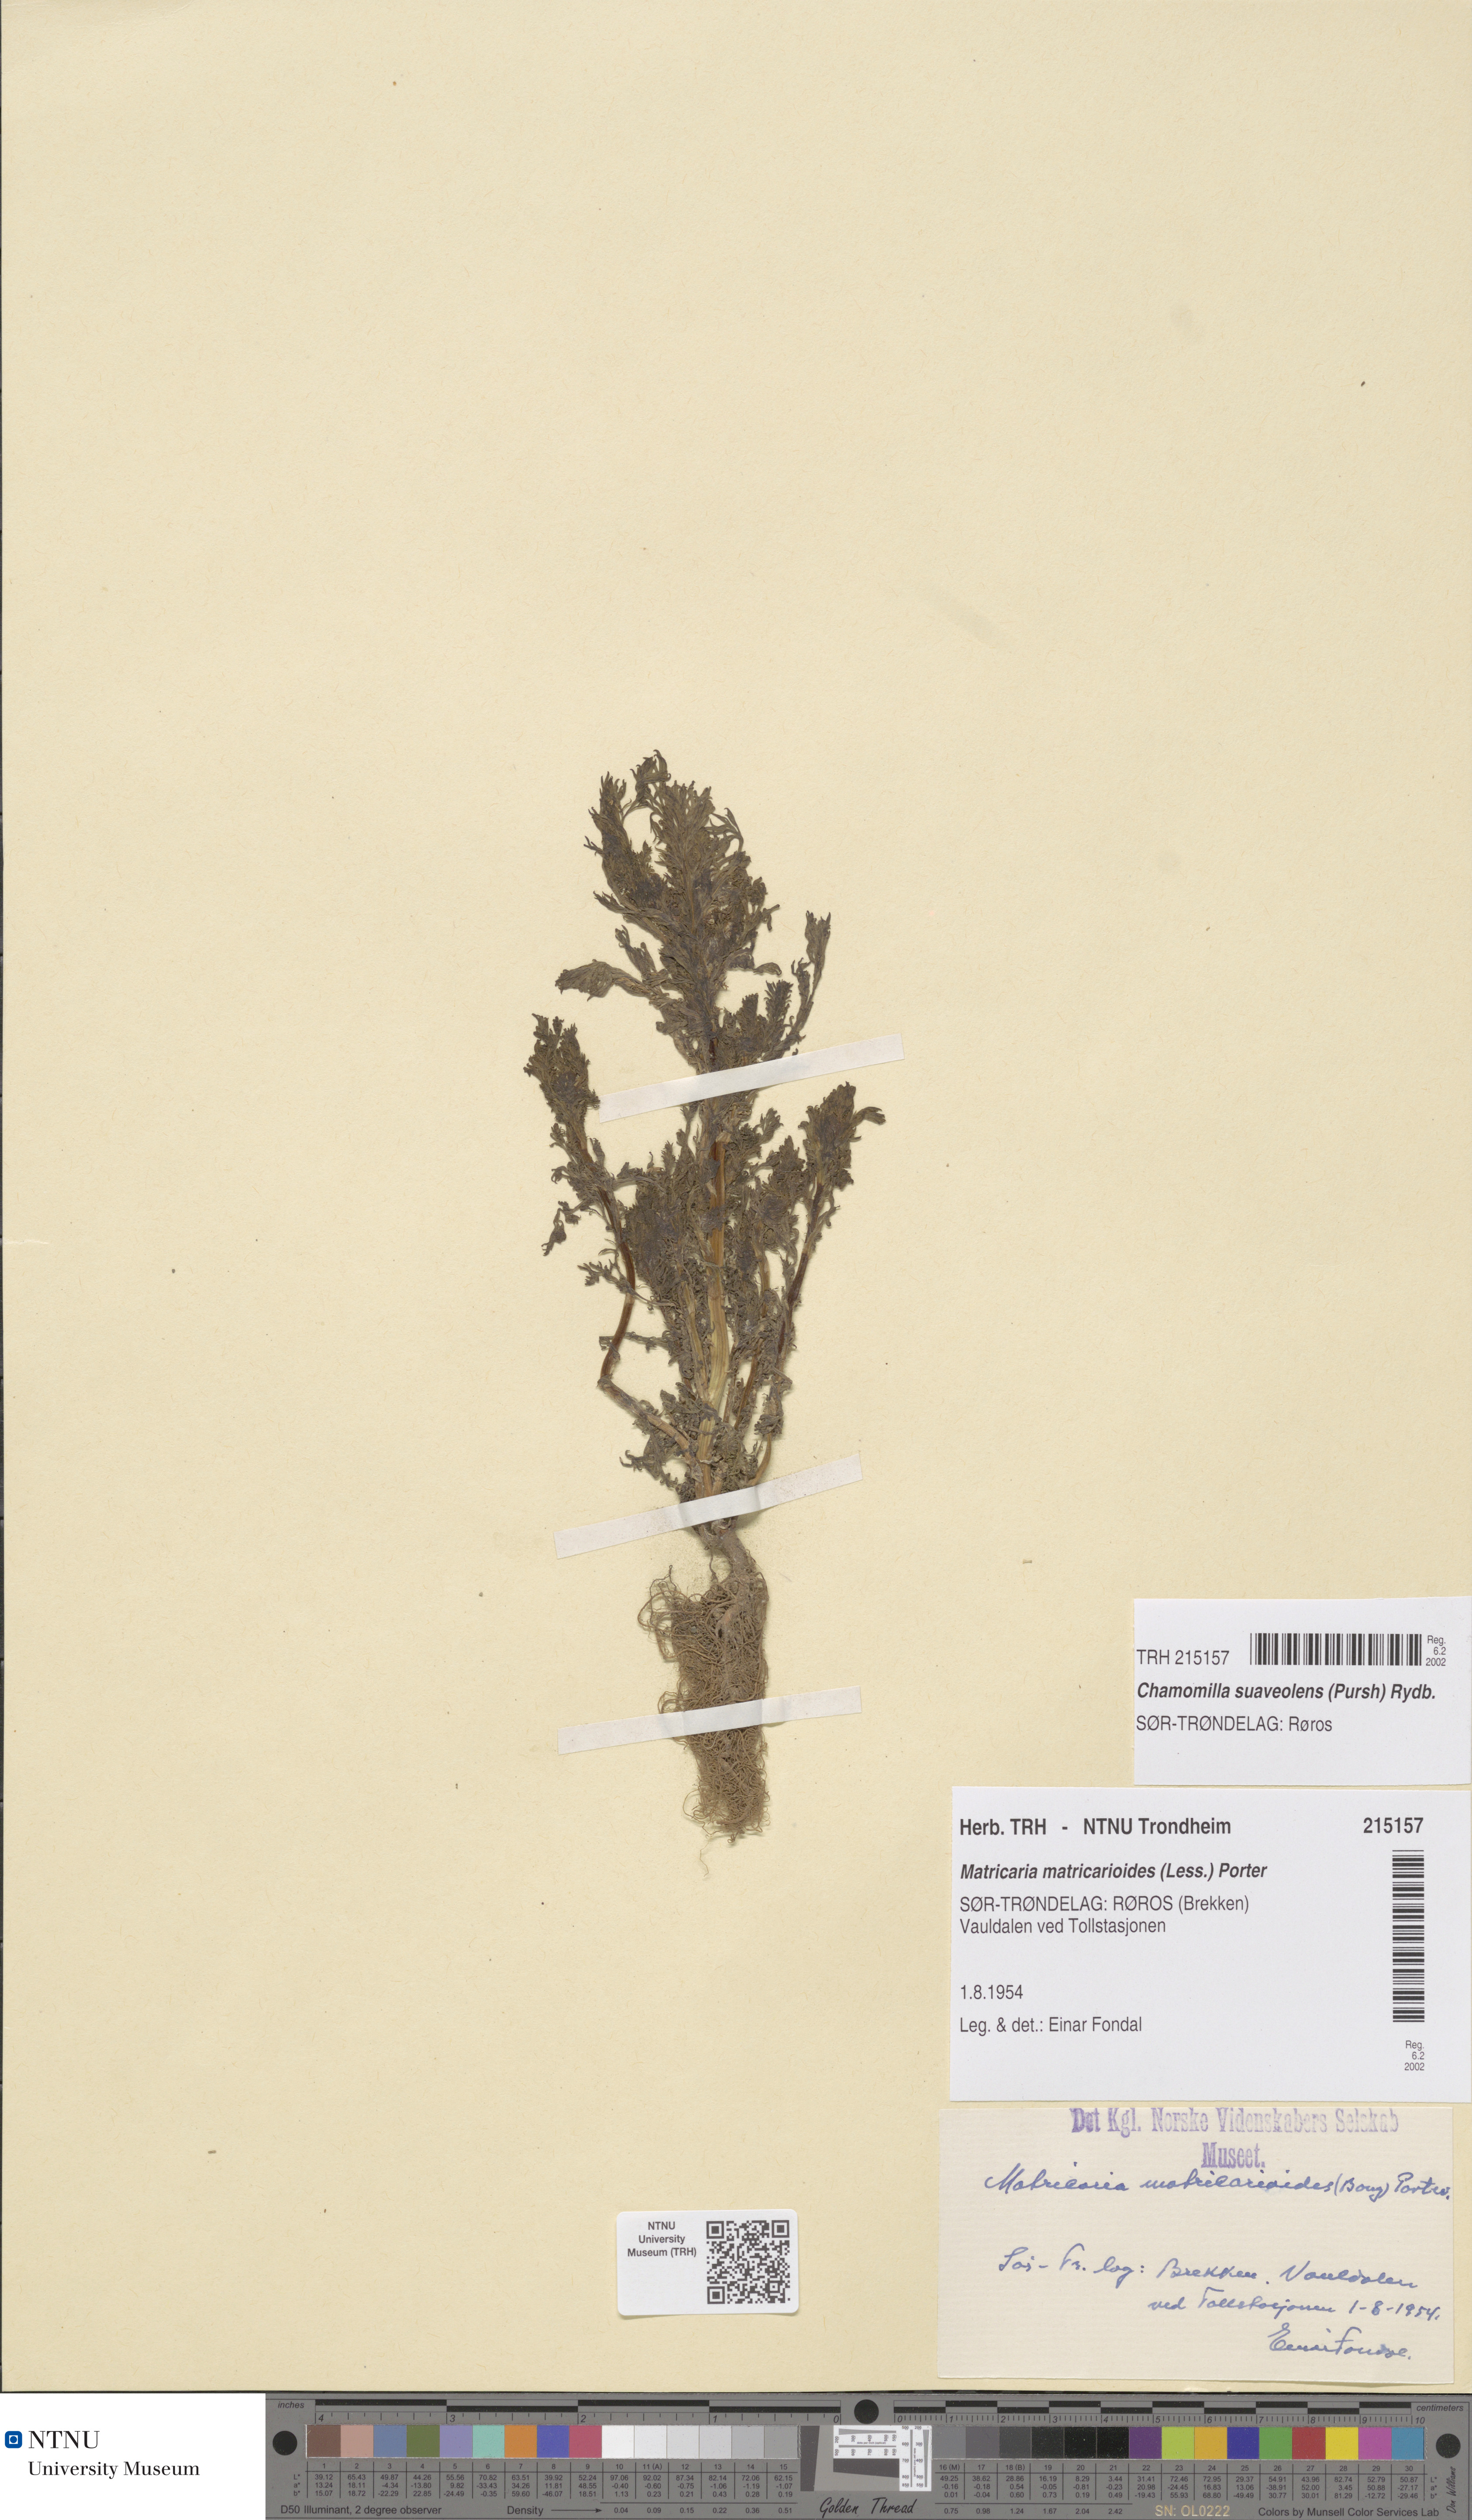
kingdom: Plantae
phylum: Tracheophyta
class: Magnoliopsida
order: Asterales
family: Asteraceae
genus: Matricaria
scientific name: Matricaria discoidea
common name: Disc mayweed
